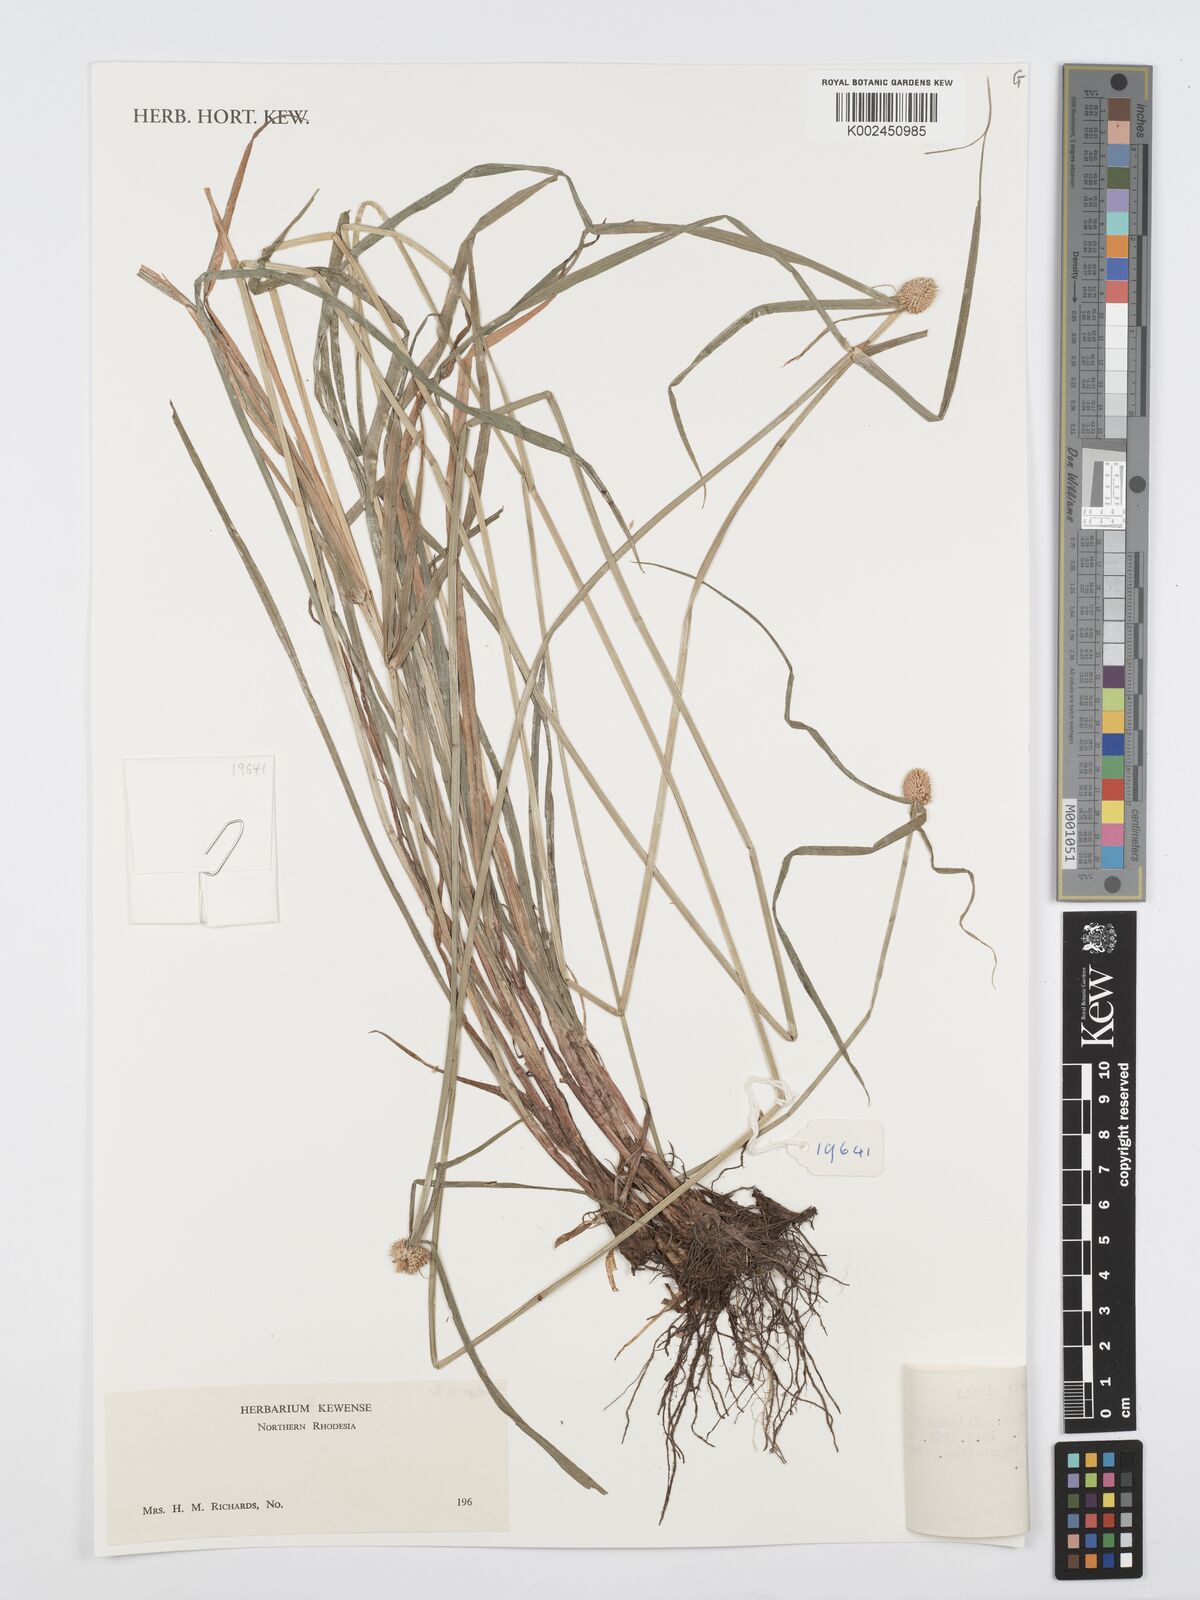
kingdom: Plantae
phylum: Tracheophyta
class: Liliopsida
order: Poales
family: Cyperaceae
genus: Cyperus
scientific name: Cyperus
